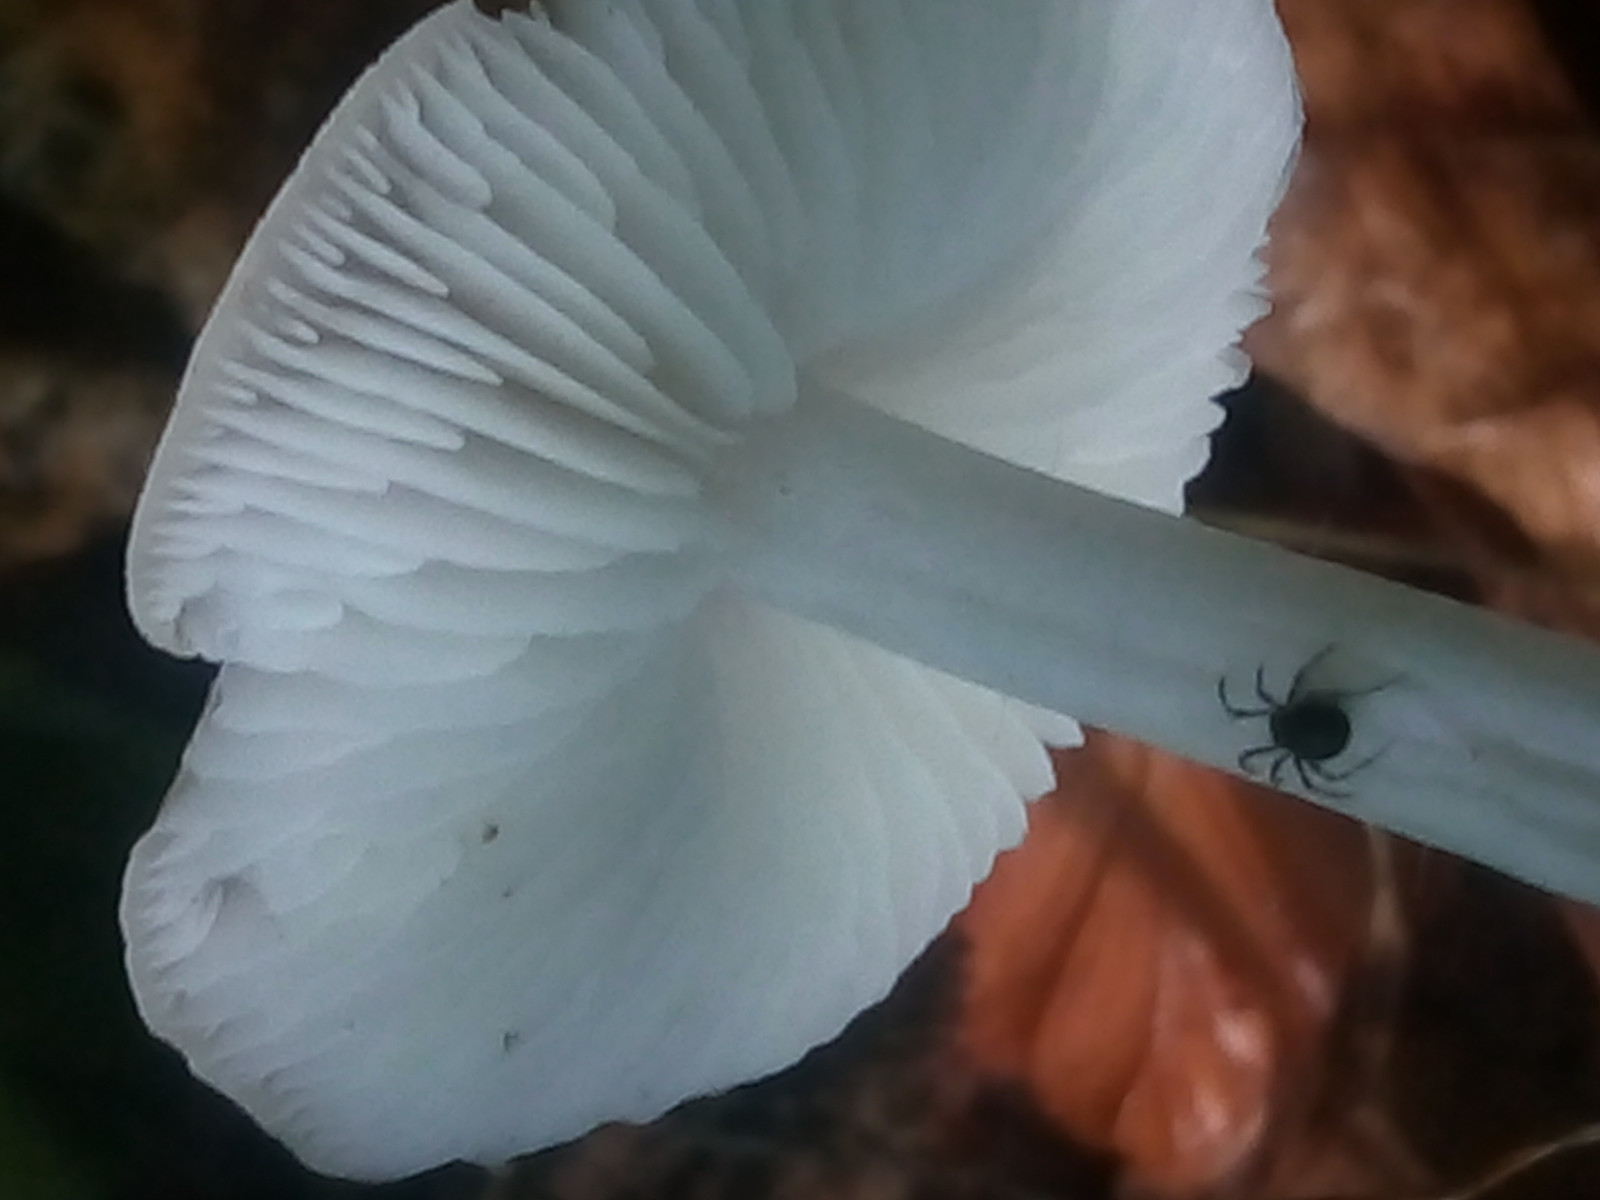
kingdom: Fungi
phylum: Basidiomycota
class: Agaricomycetes
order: Agaricales
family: Porotheleaceae
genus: Hydropodia
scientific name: Hydropodia subalpina
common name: vår-fnugfod
